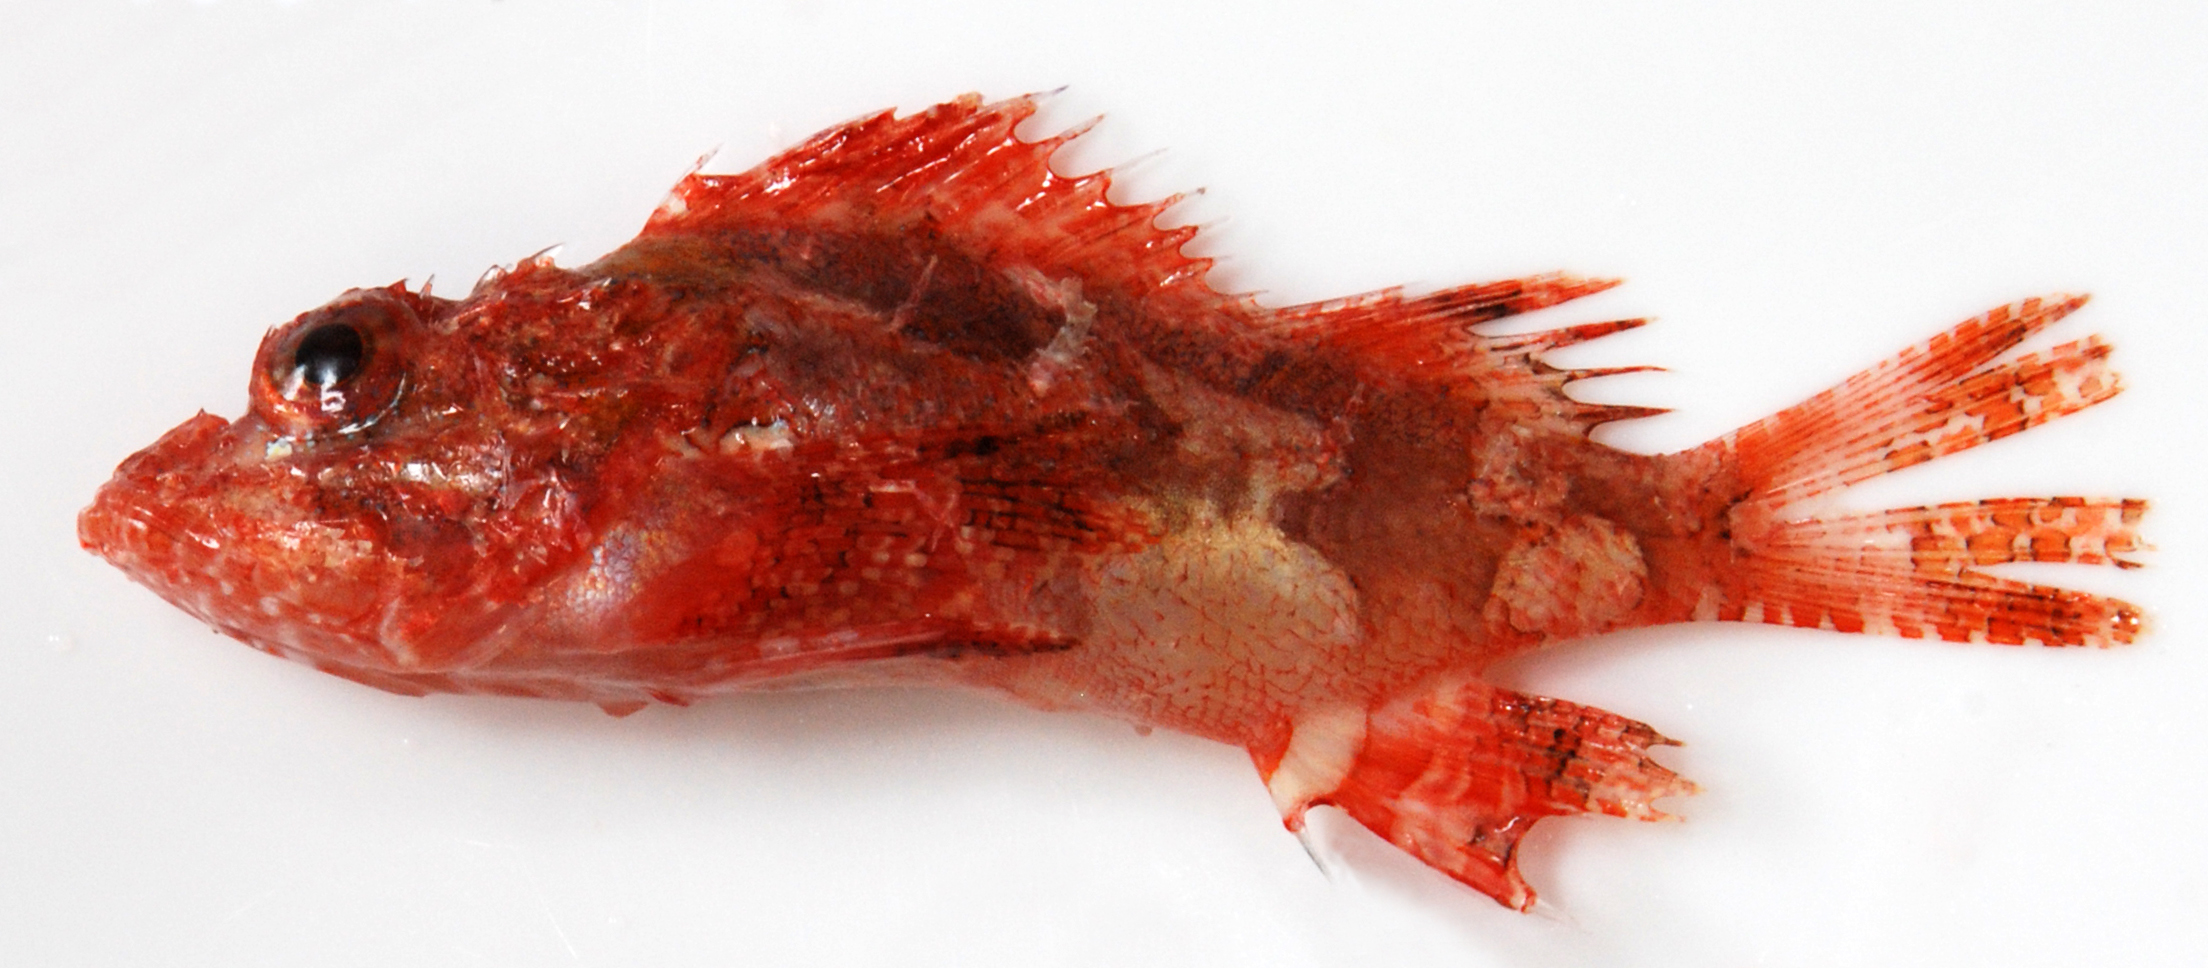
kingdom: Animalia
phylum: Chordata
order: Scorpaeniformes
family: Scorpaenidae
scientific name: Scorpaenidae
